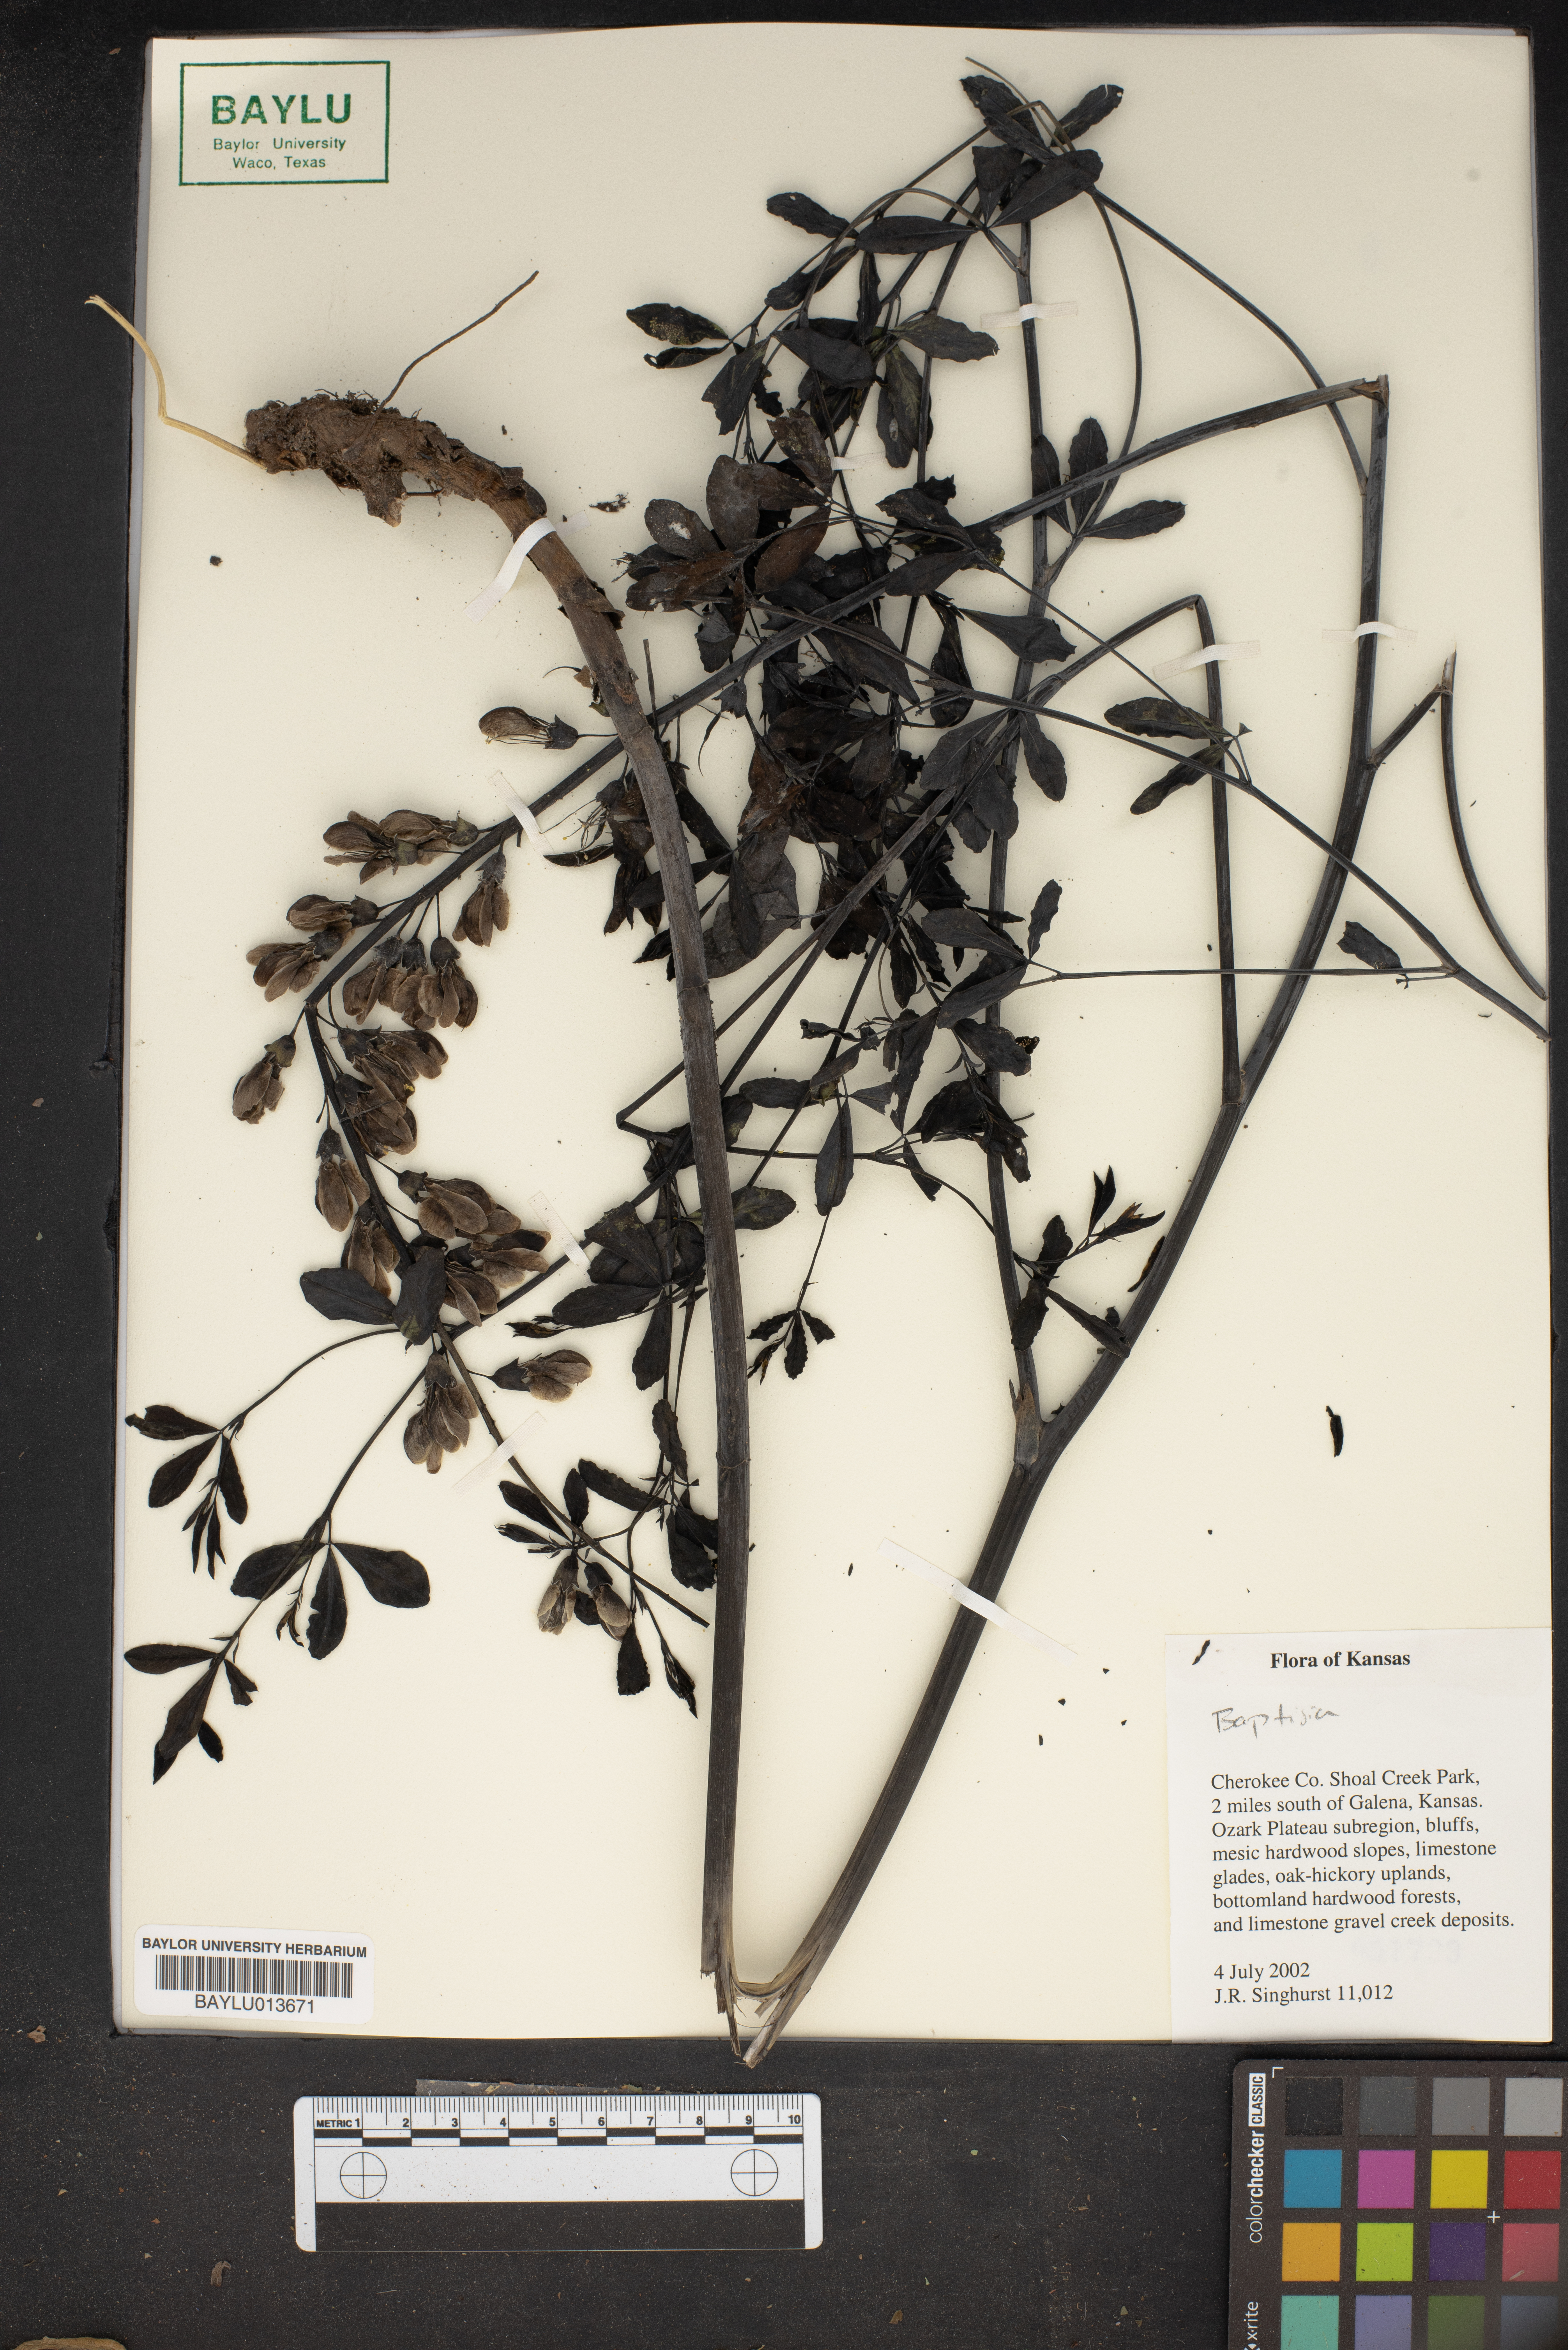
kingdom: Plantae
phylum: Tracheophyta
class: Magnoliopsida
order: Fabales
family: Fabaceae
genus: Baptisia
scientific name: Baptisia
